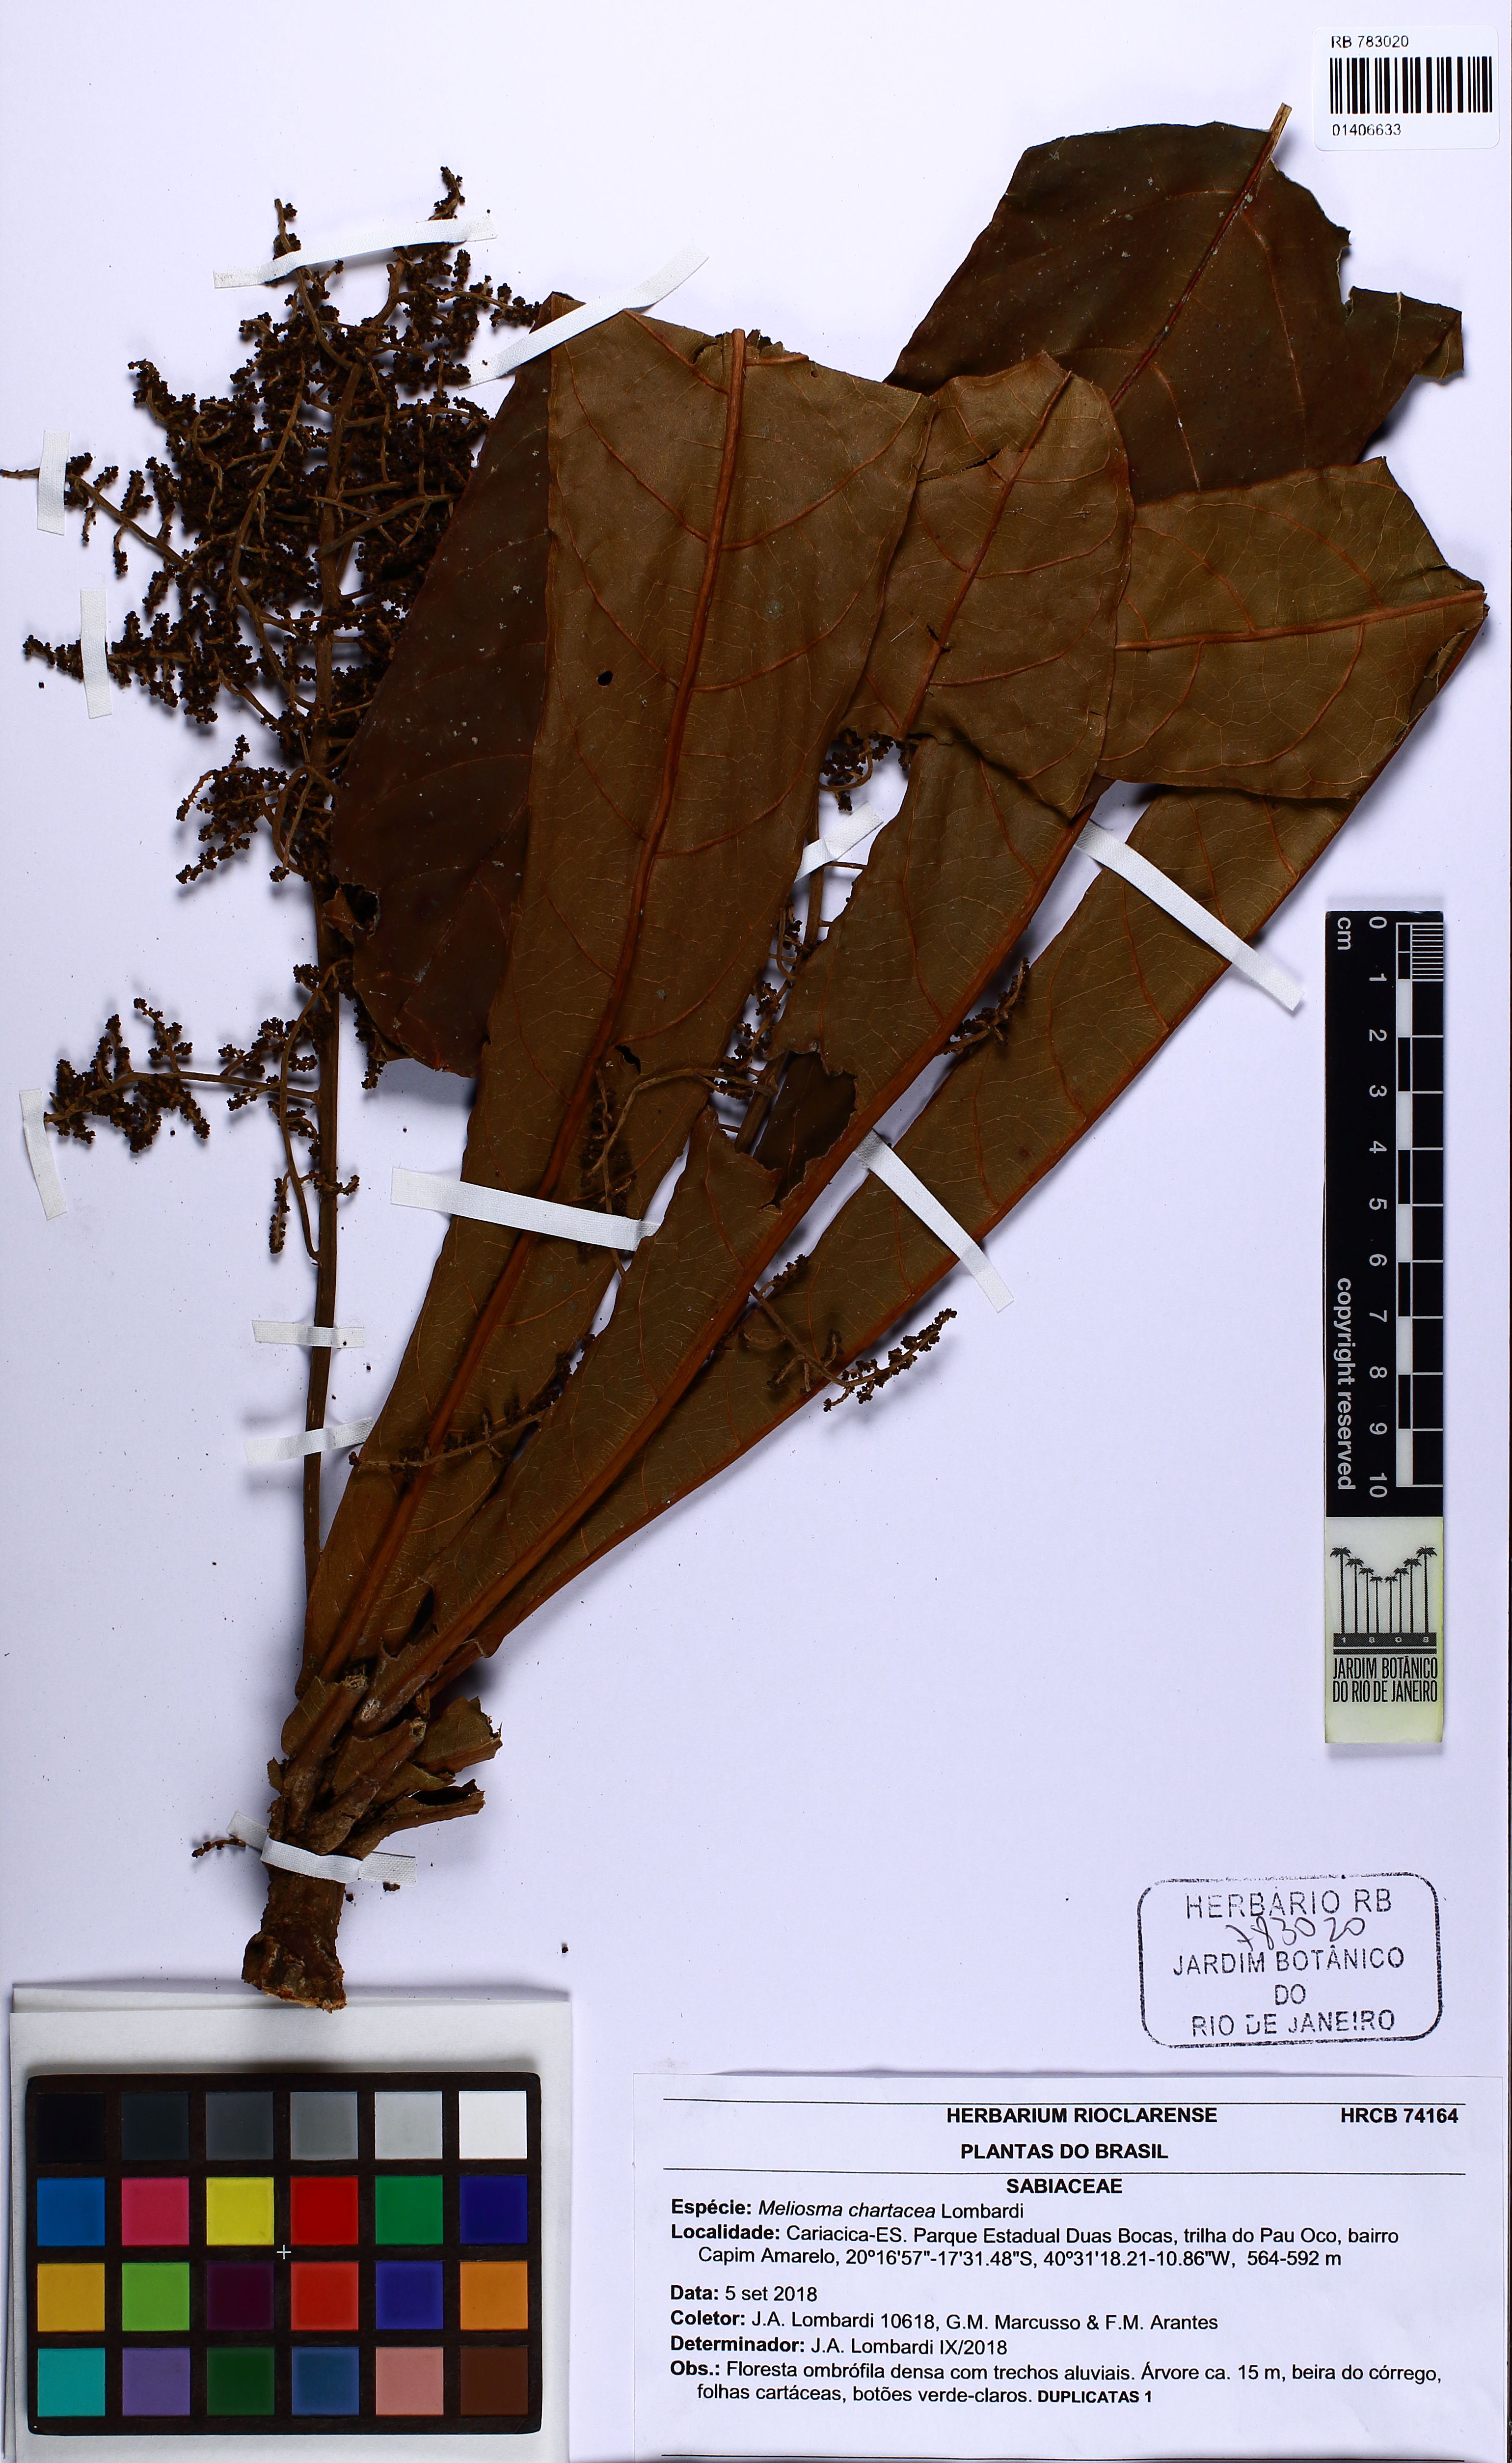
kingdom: Plantae
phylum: Tracheophyta
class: Magnoliopsida
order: Proteales
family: Sabiaceae
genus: Meliosma
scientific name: Meliosma chartacea
